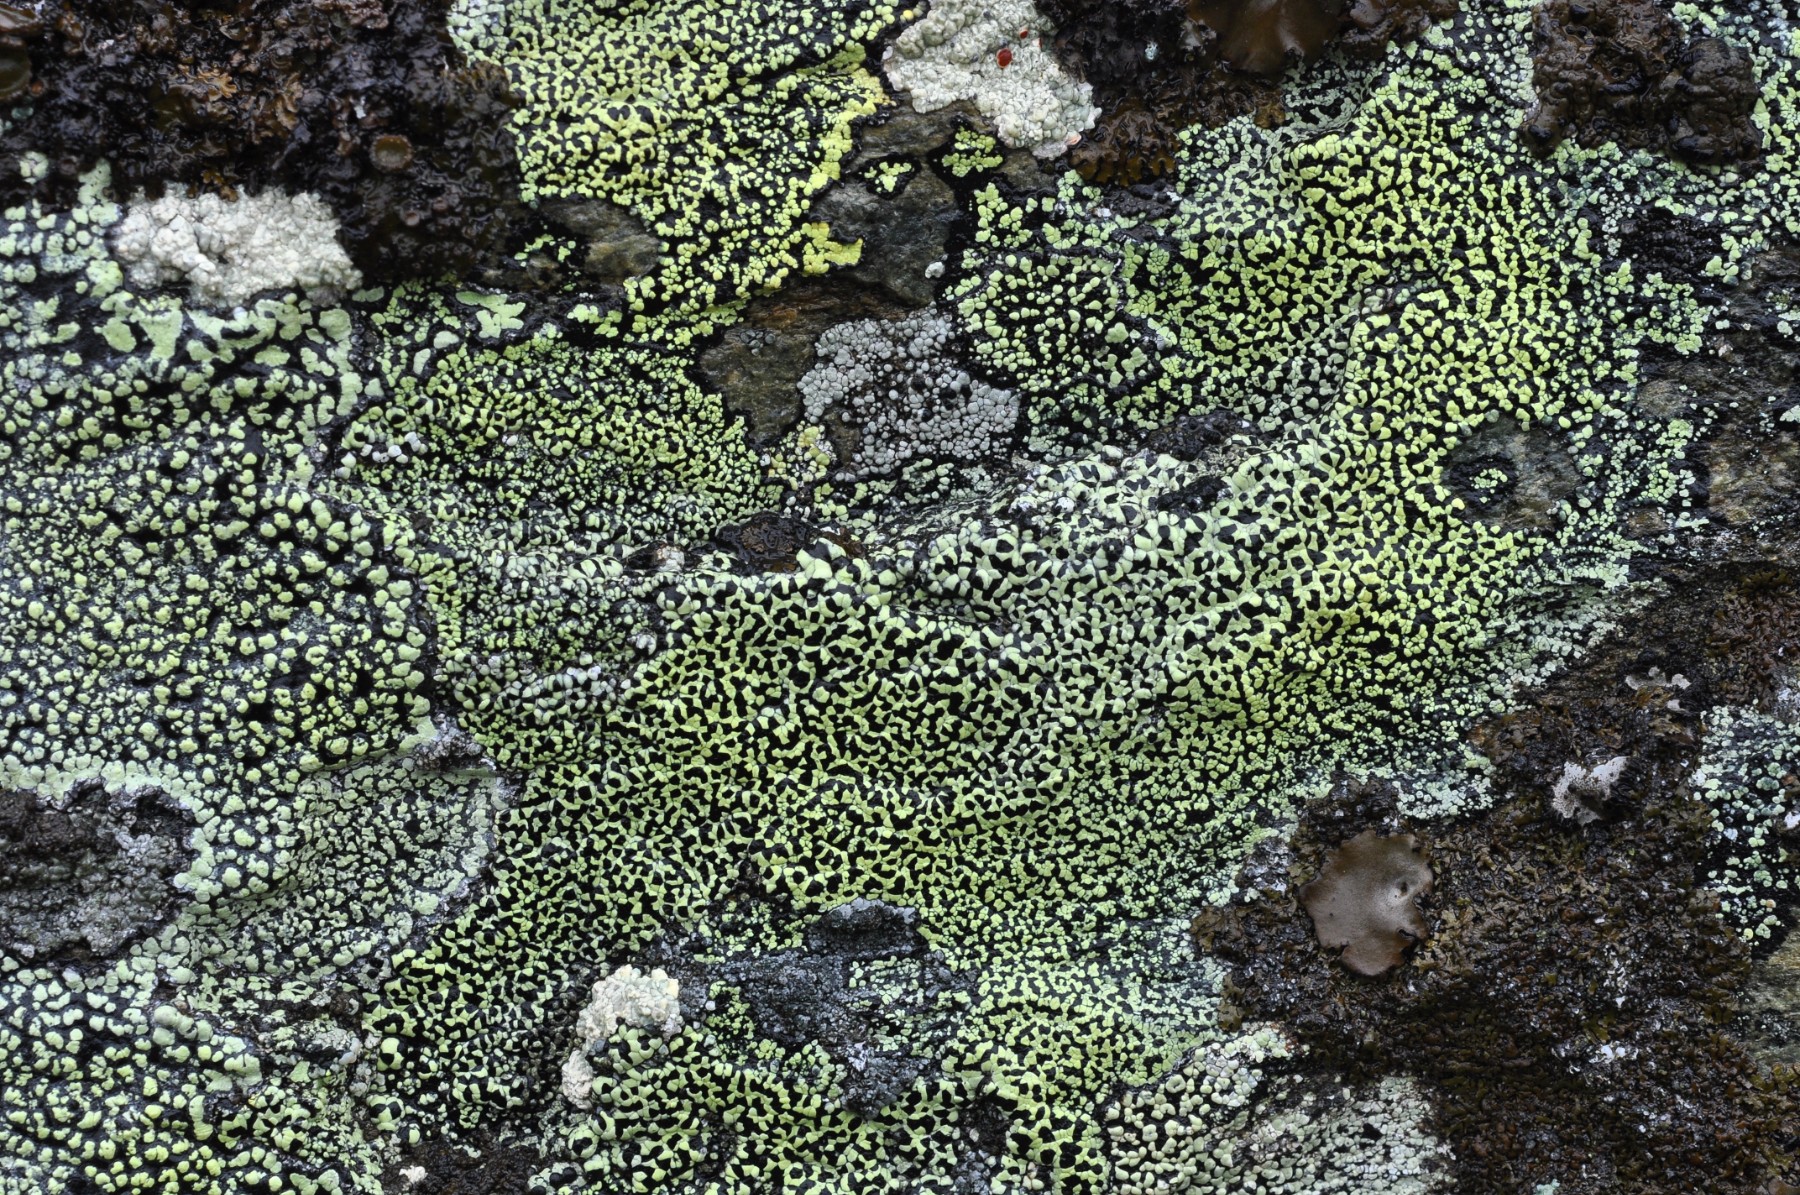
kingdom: Fungi
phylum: Ascomycota
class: Lecanoromycetes
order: Rhizocarpales
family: Rhizocarpaceae
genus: Rhizocarpon
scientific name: Rhizocarpon geographicum
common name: gulgrøn landkortlav
